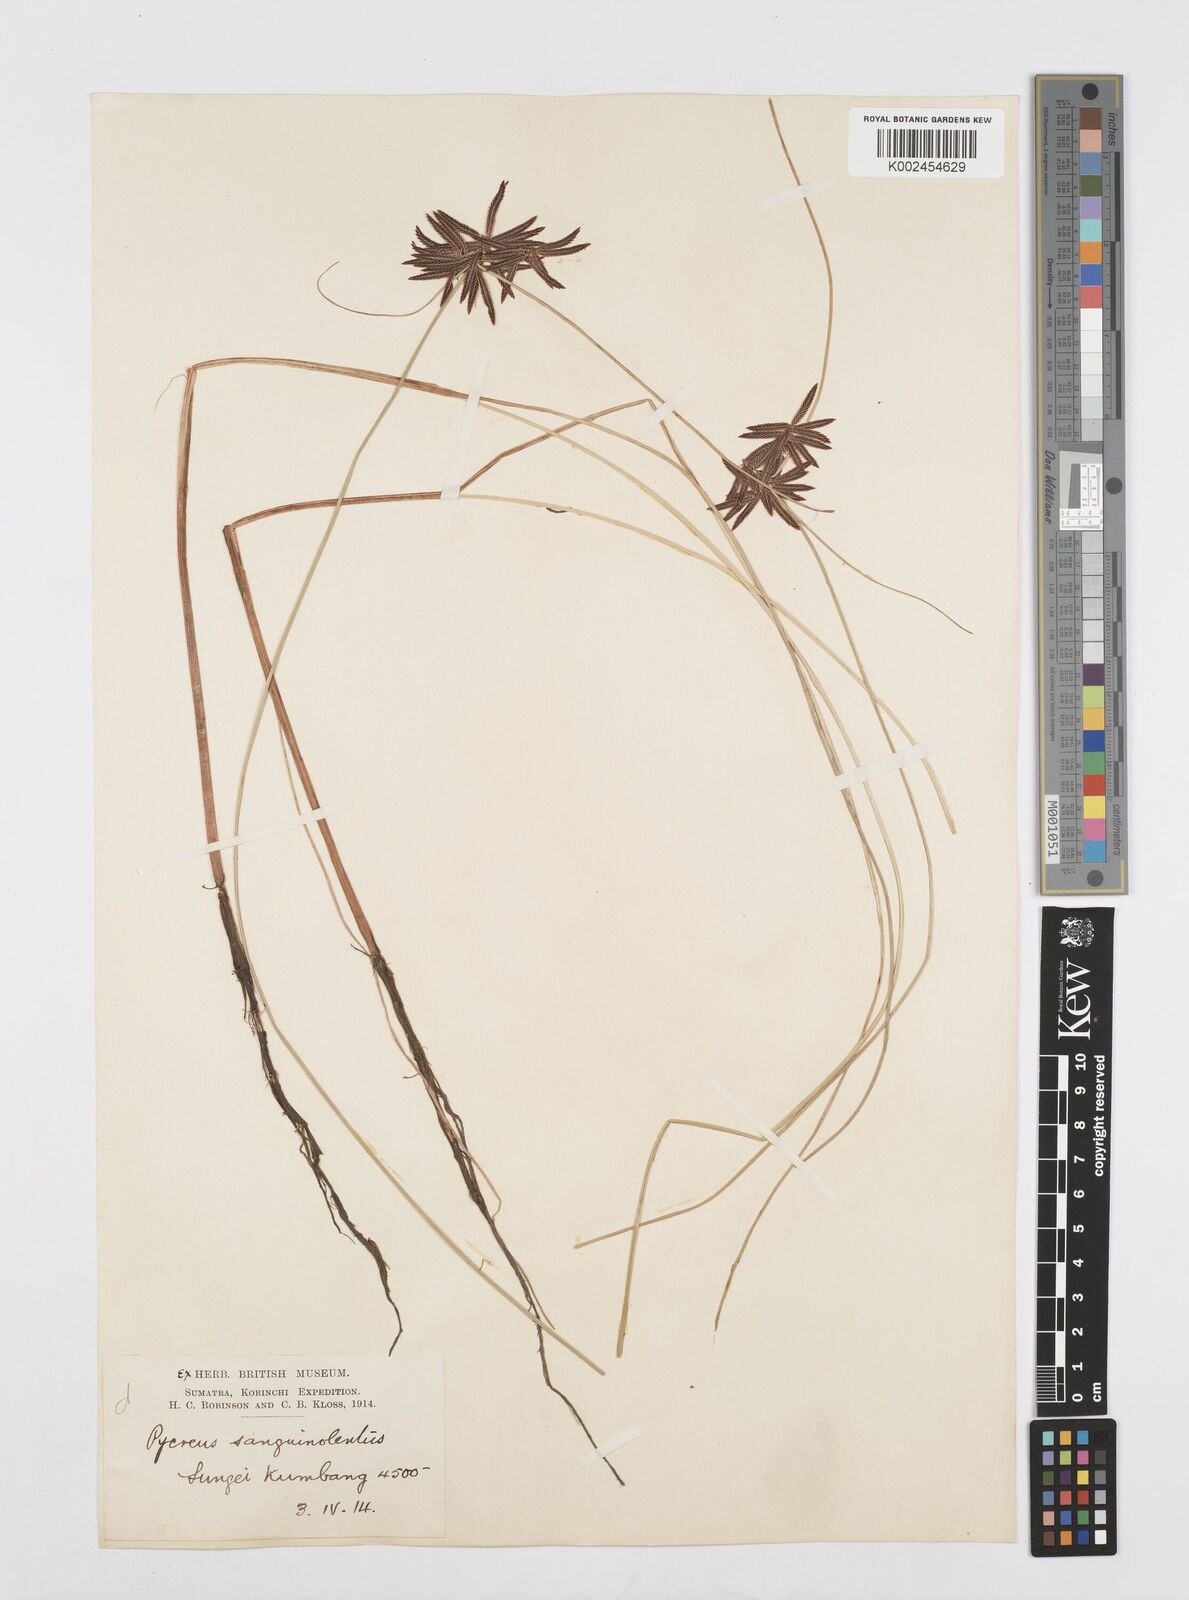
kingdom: Plantae
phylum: Tracheophyta
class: Liliopsida
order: Poales
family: Cyperaceae
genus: Cyperus
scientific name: Cyperus flavidus
